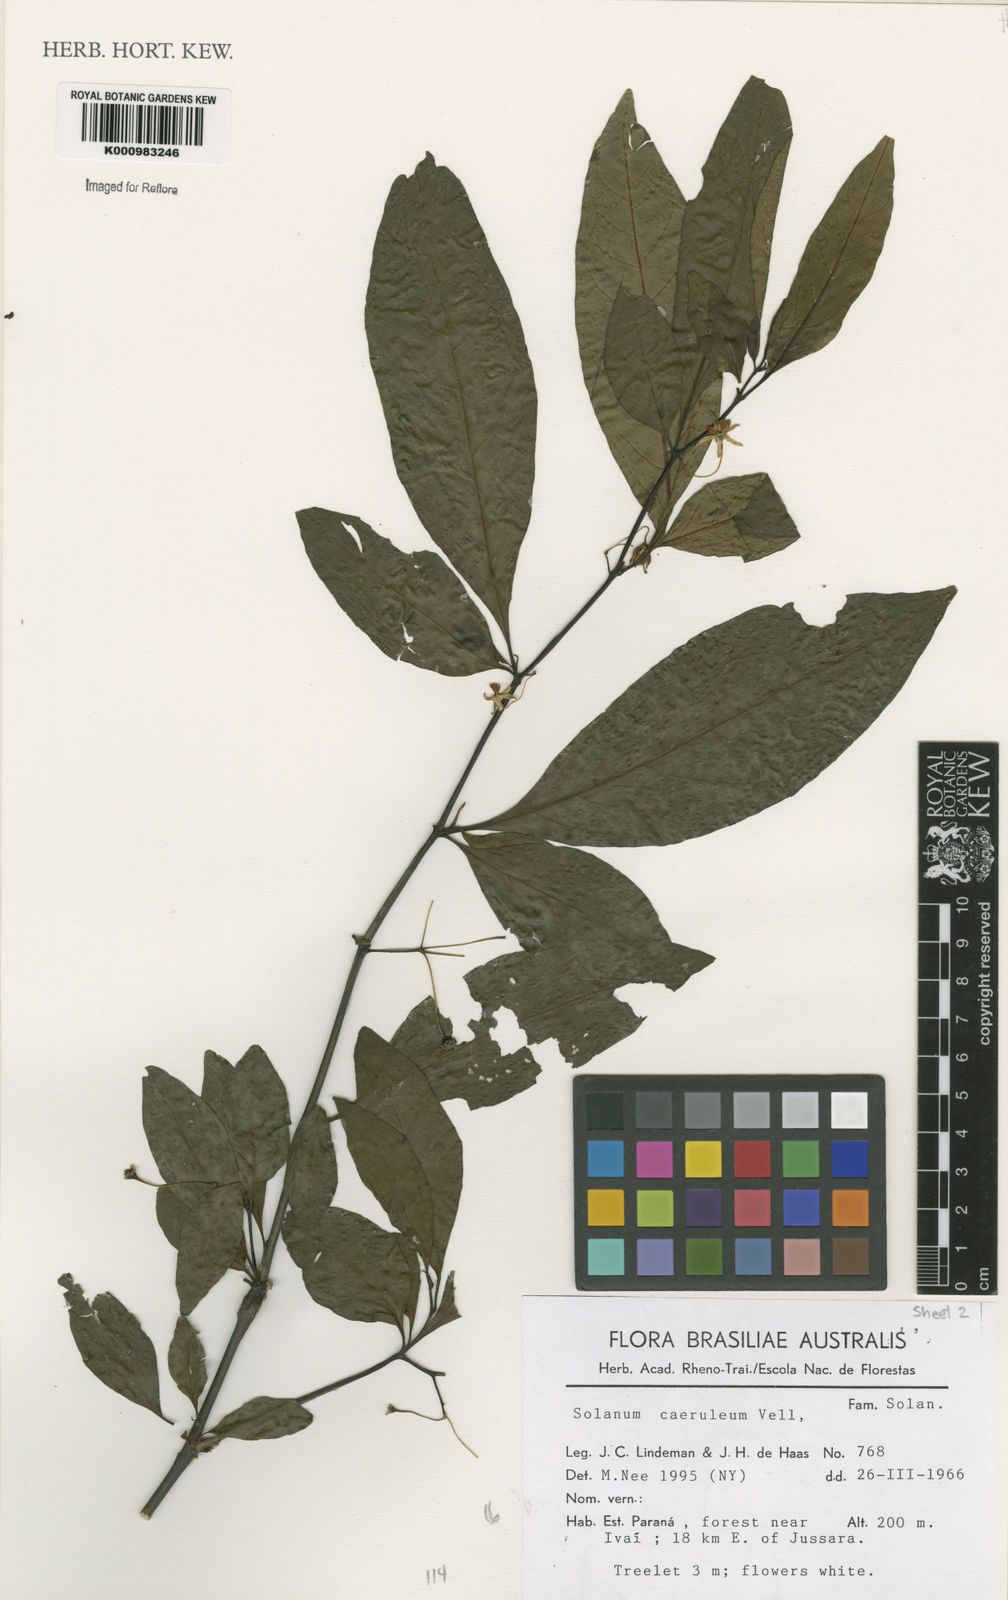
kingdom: Plantae
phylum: Tracheophyta
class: Magnoliopsida
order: Solanales
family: Solanaceae
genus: Solanum
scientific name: Solanum campaniforme
